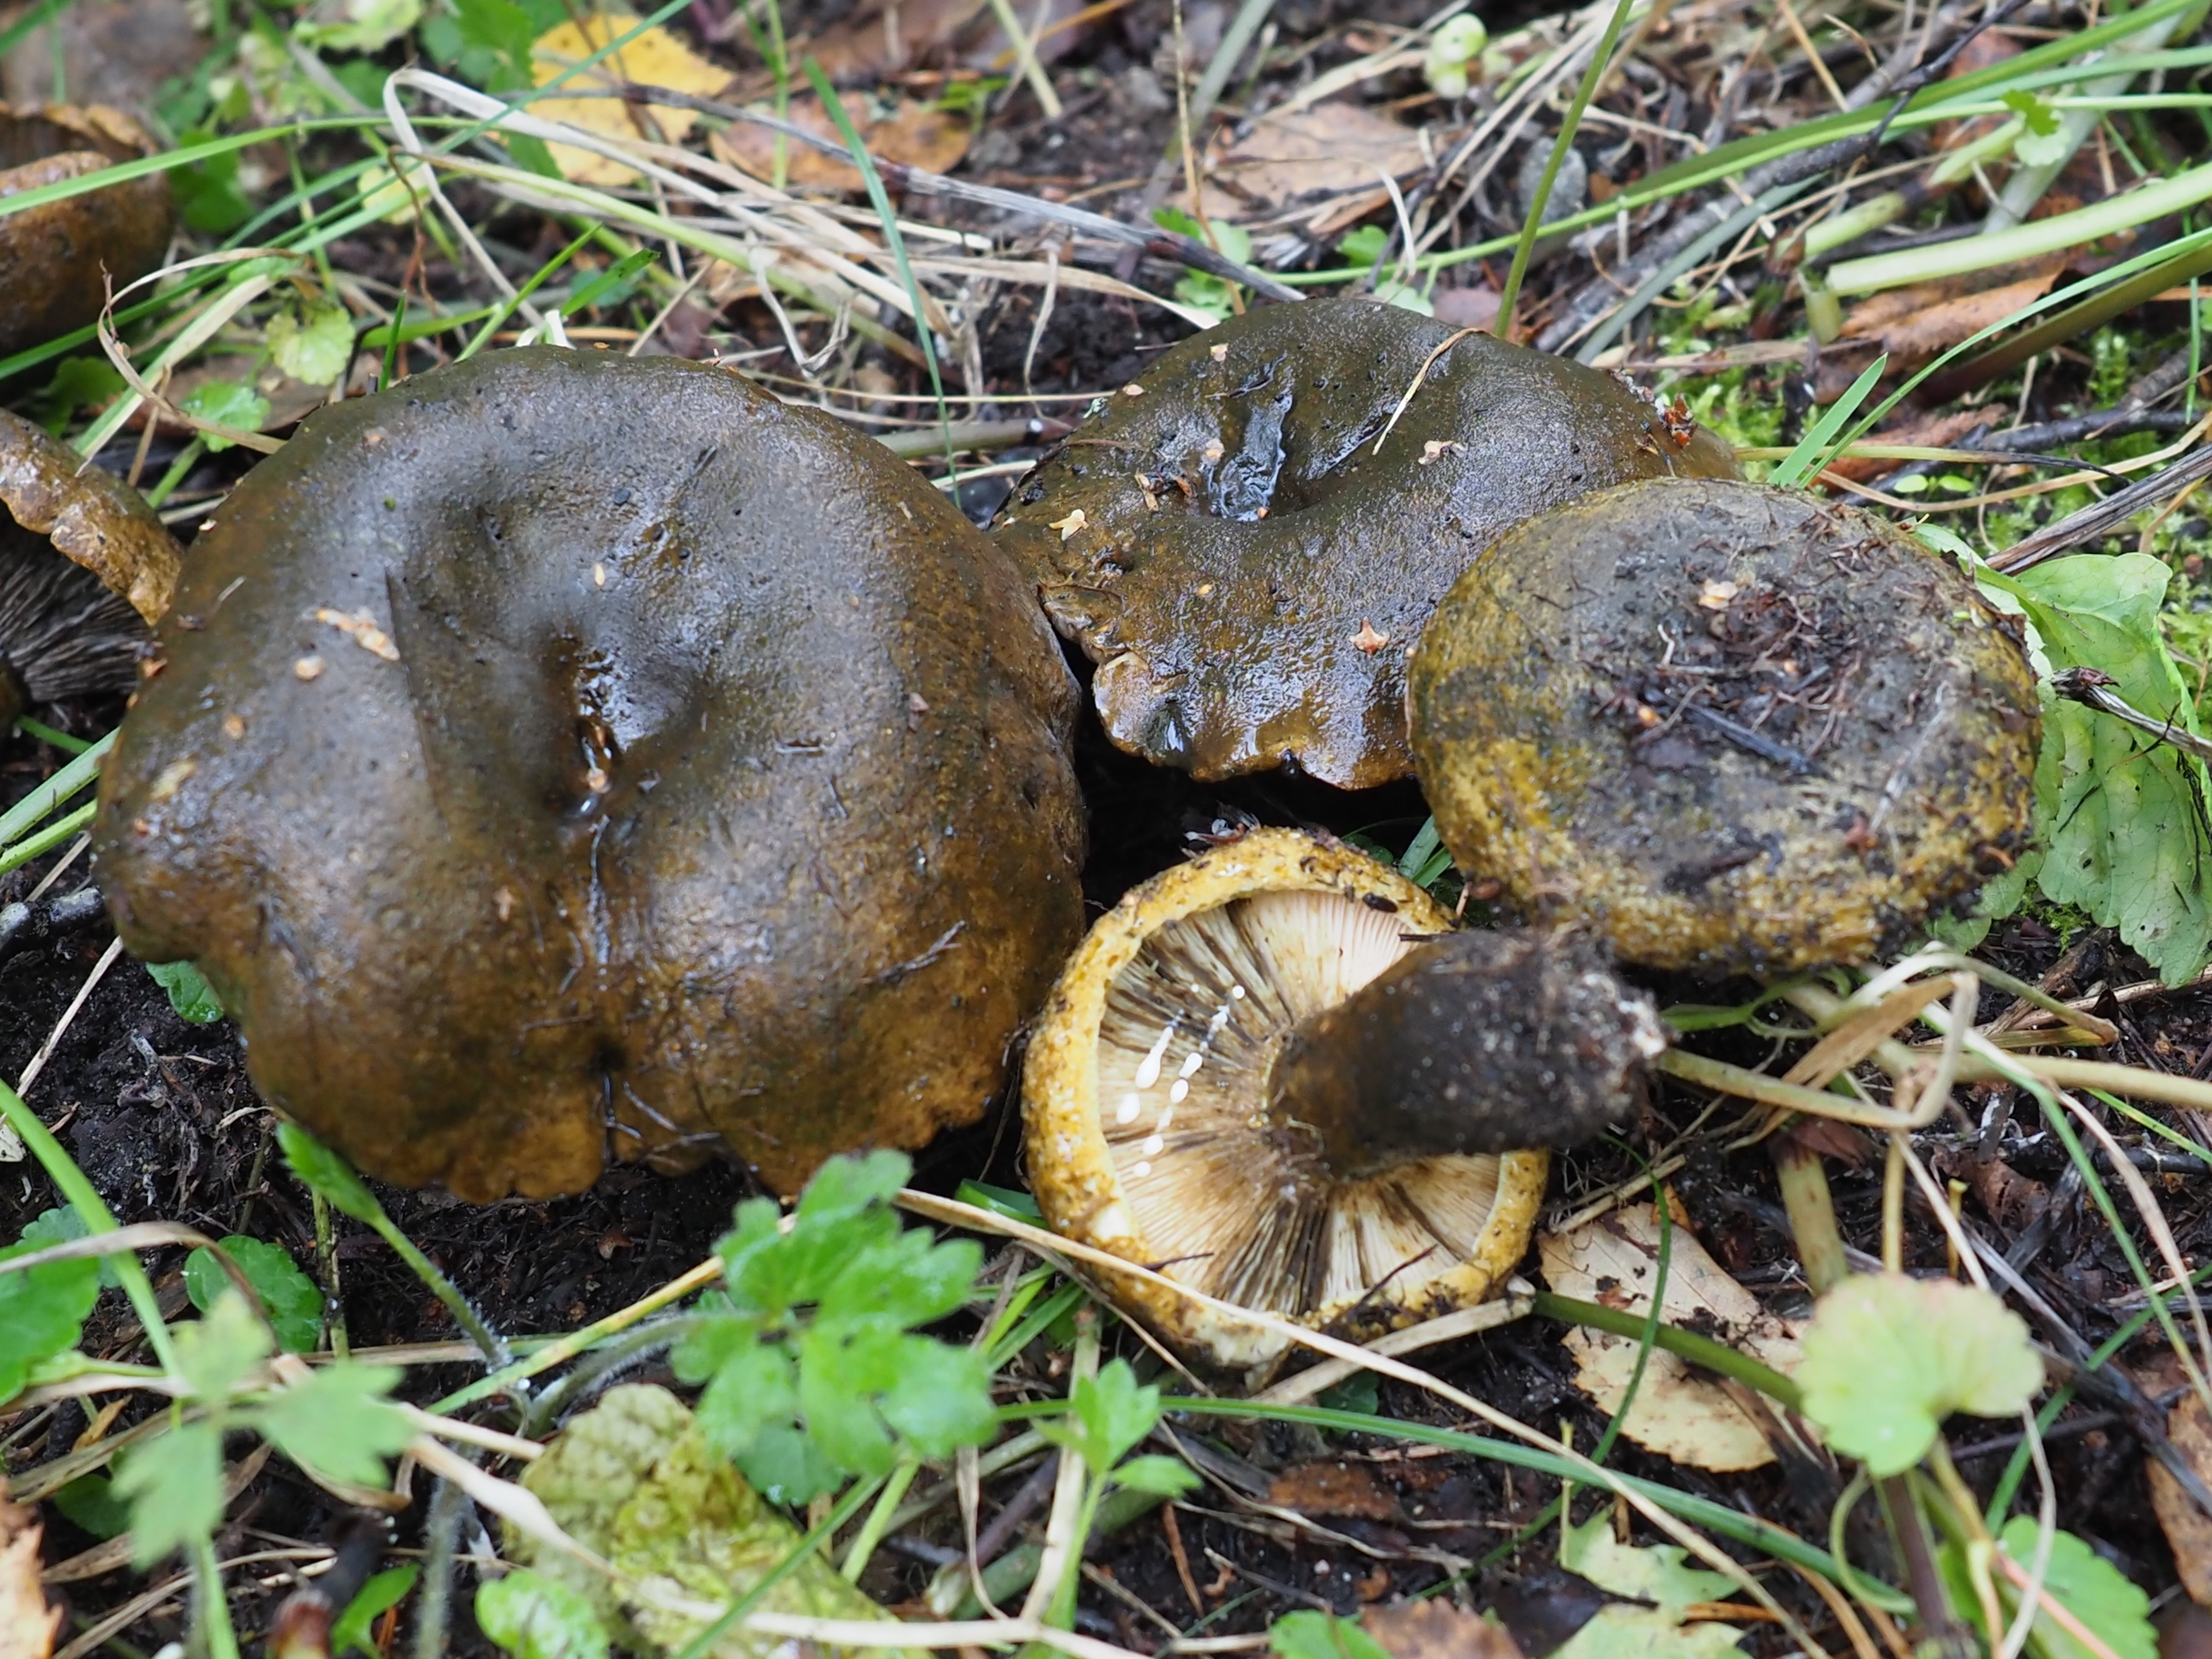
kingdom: Fungi
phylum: Basidiomycota
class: Agaricomycetes
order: Russulales
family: Russulaceae
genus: Lactarius
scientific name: Lactarius turpis
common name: Ugly milk-cap
